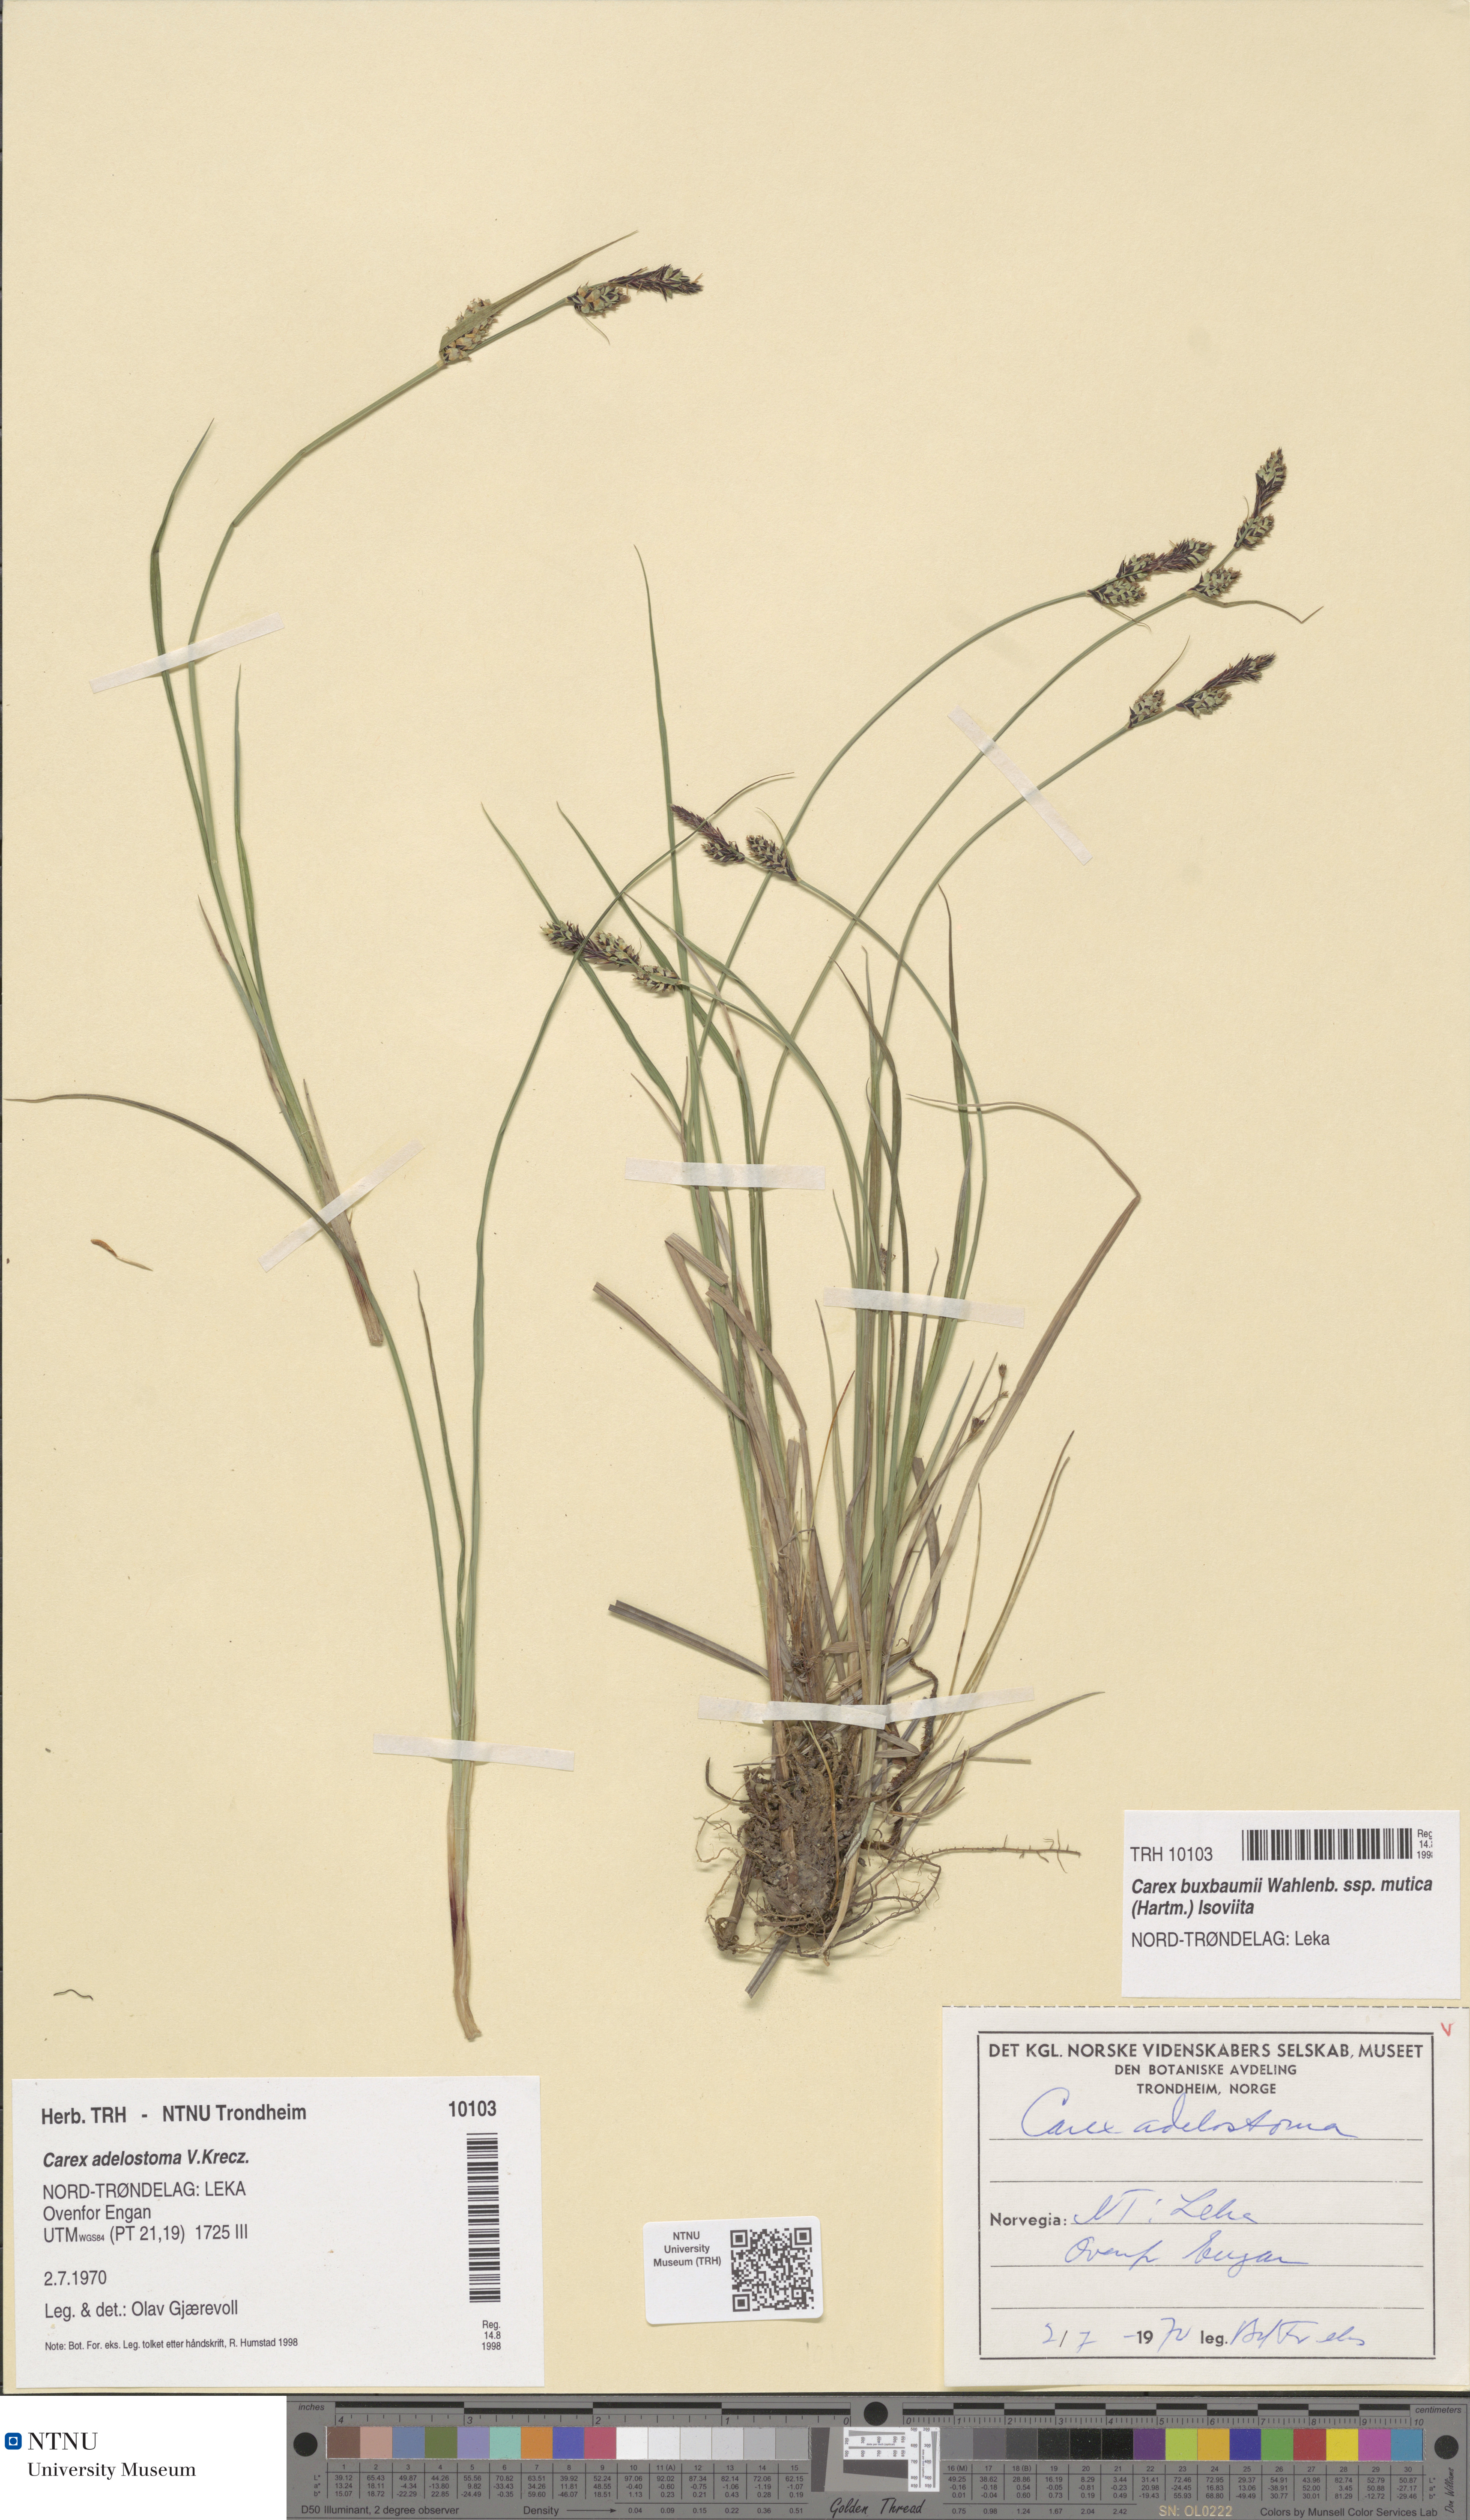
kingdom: Plantae
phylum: Tracheophyta
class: Liliopsida
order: Poales
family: Cyperaceae
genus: Carex
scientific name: Carex adelostoma
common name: Circumpolar sedge
